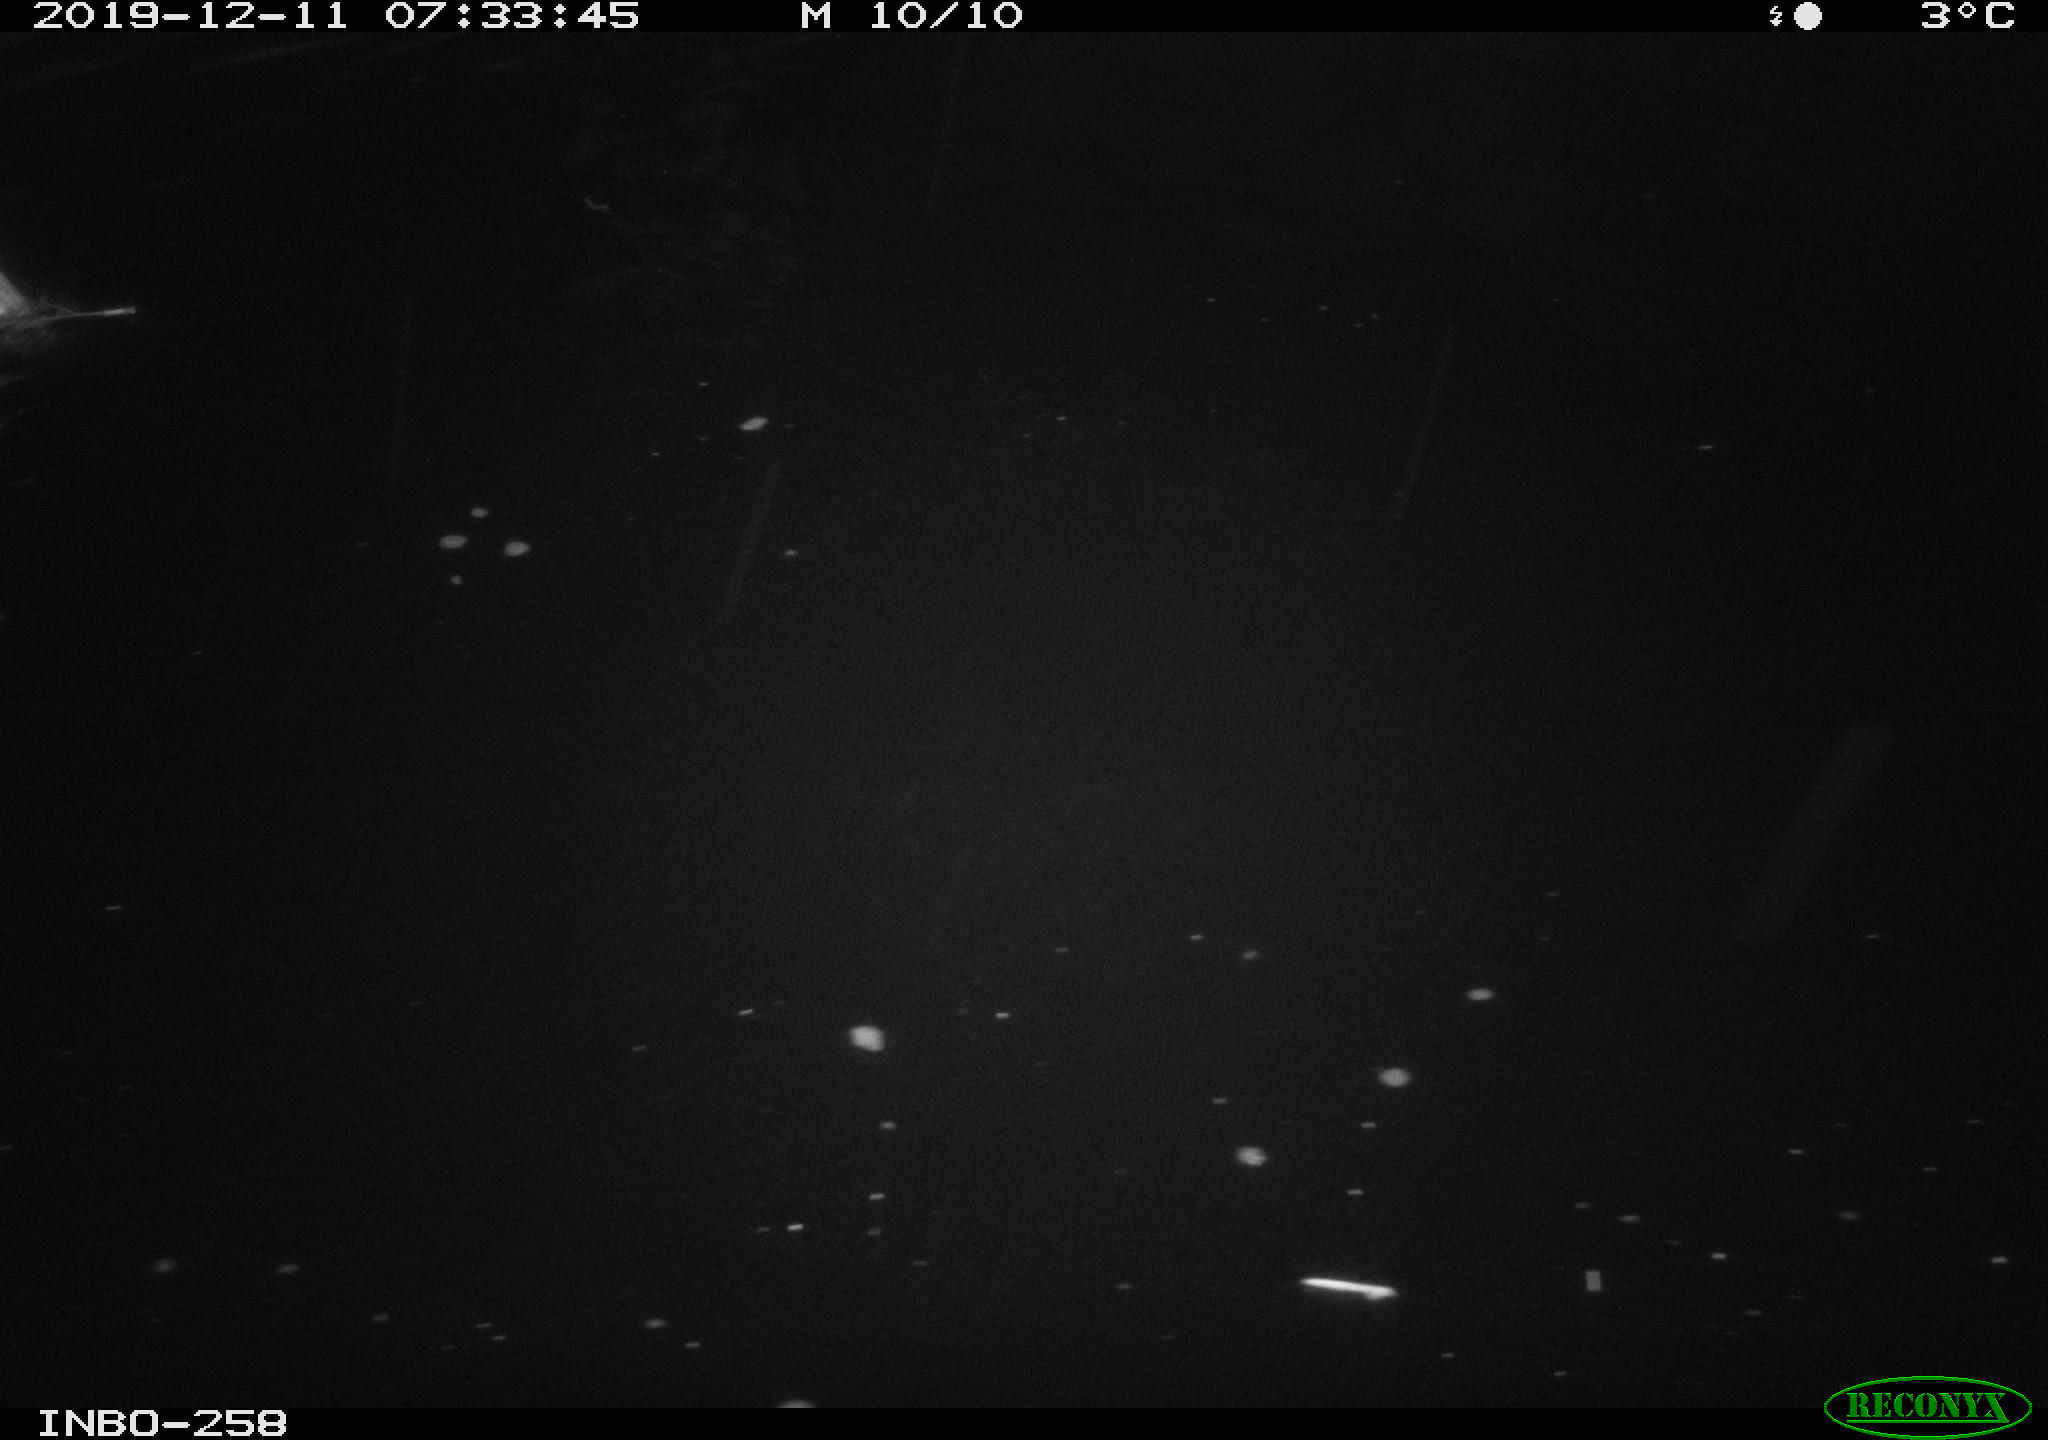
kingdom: Animalia
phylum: Chordata
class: Aves
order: Anseriformes
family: Anatidae
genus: Anas
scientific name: Anas platyrhynchos
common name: Mallard
